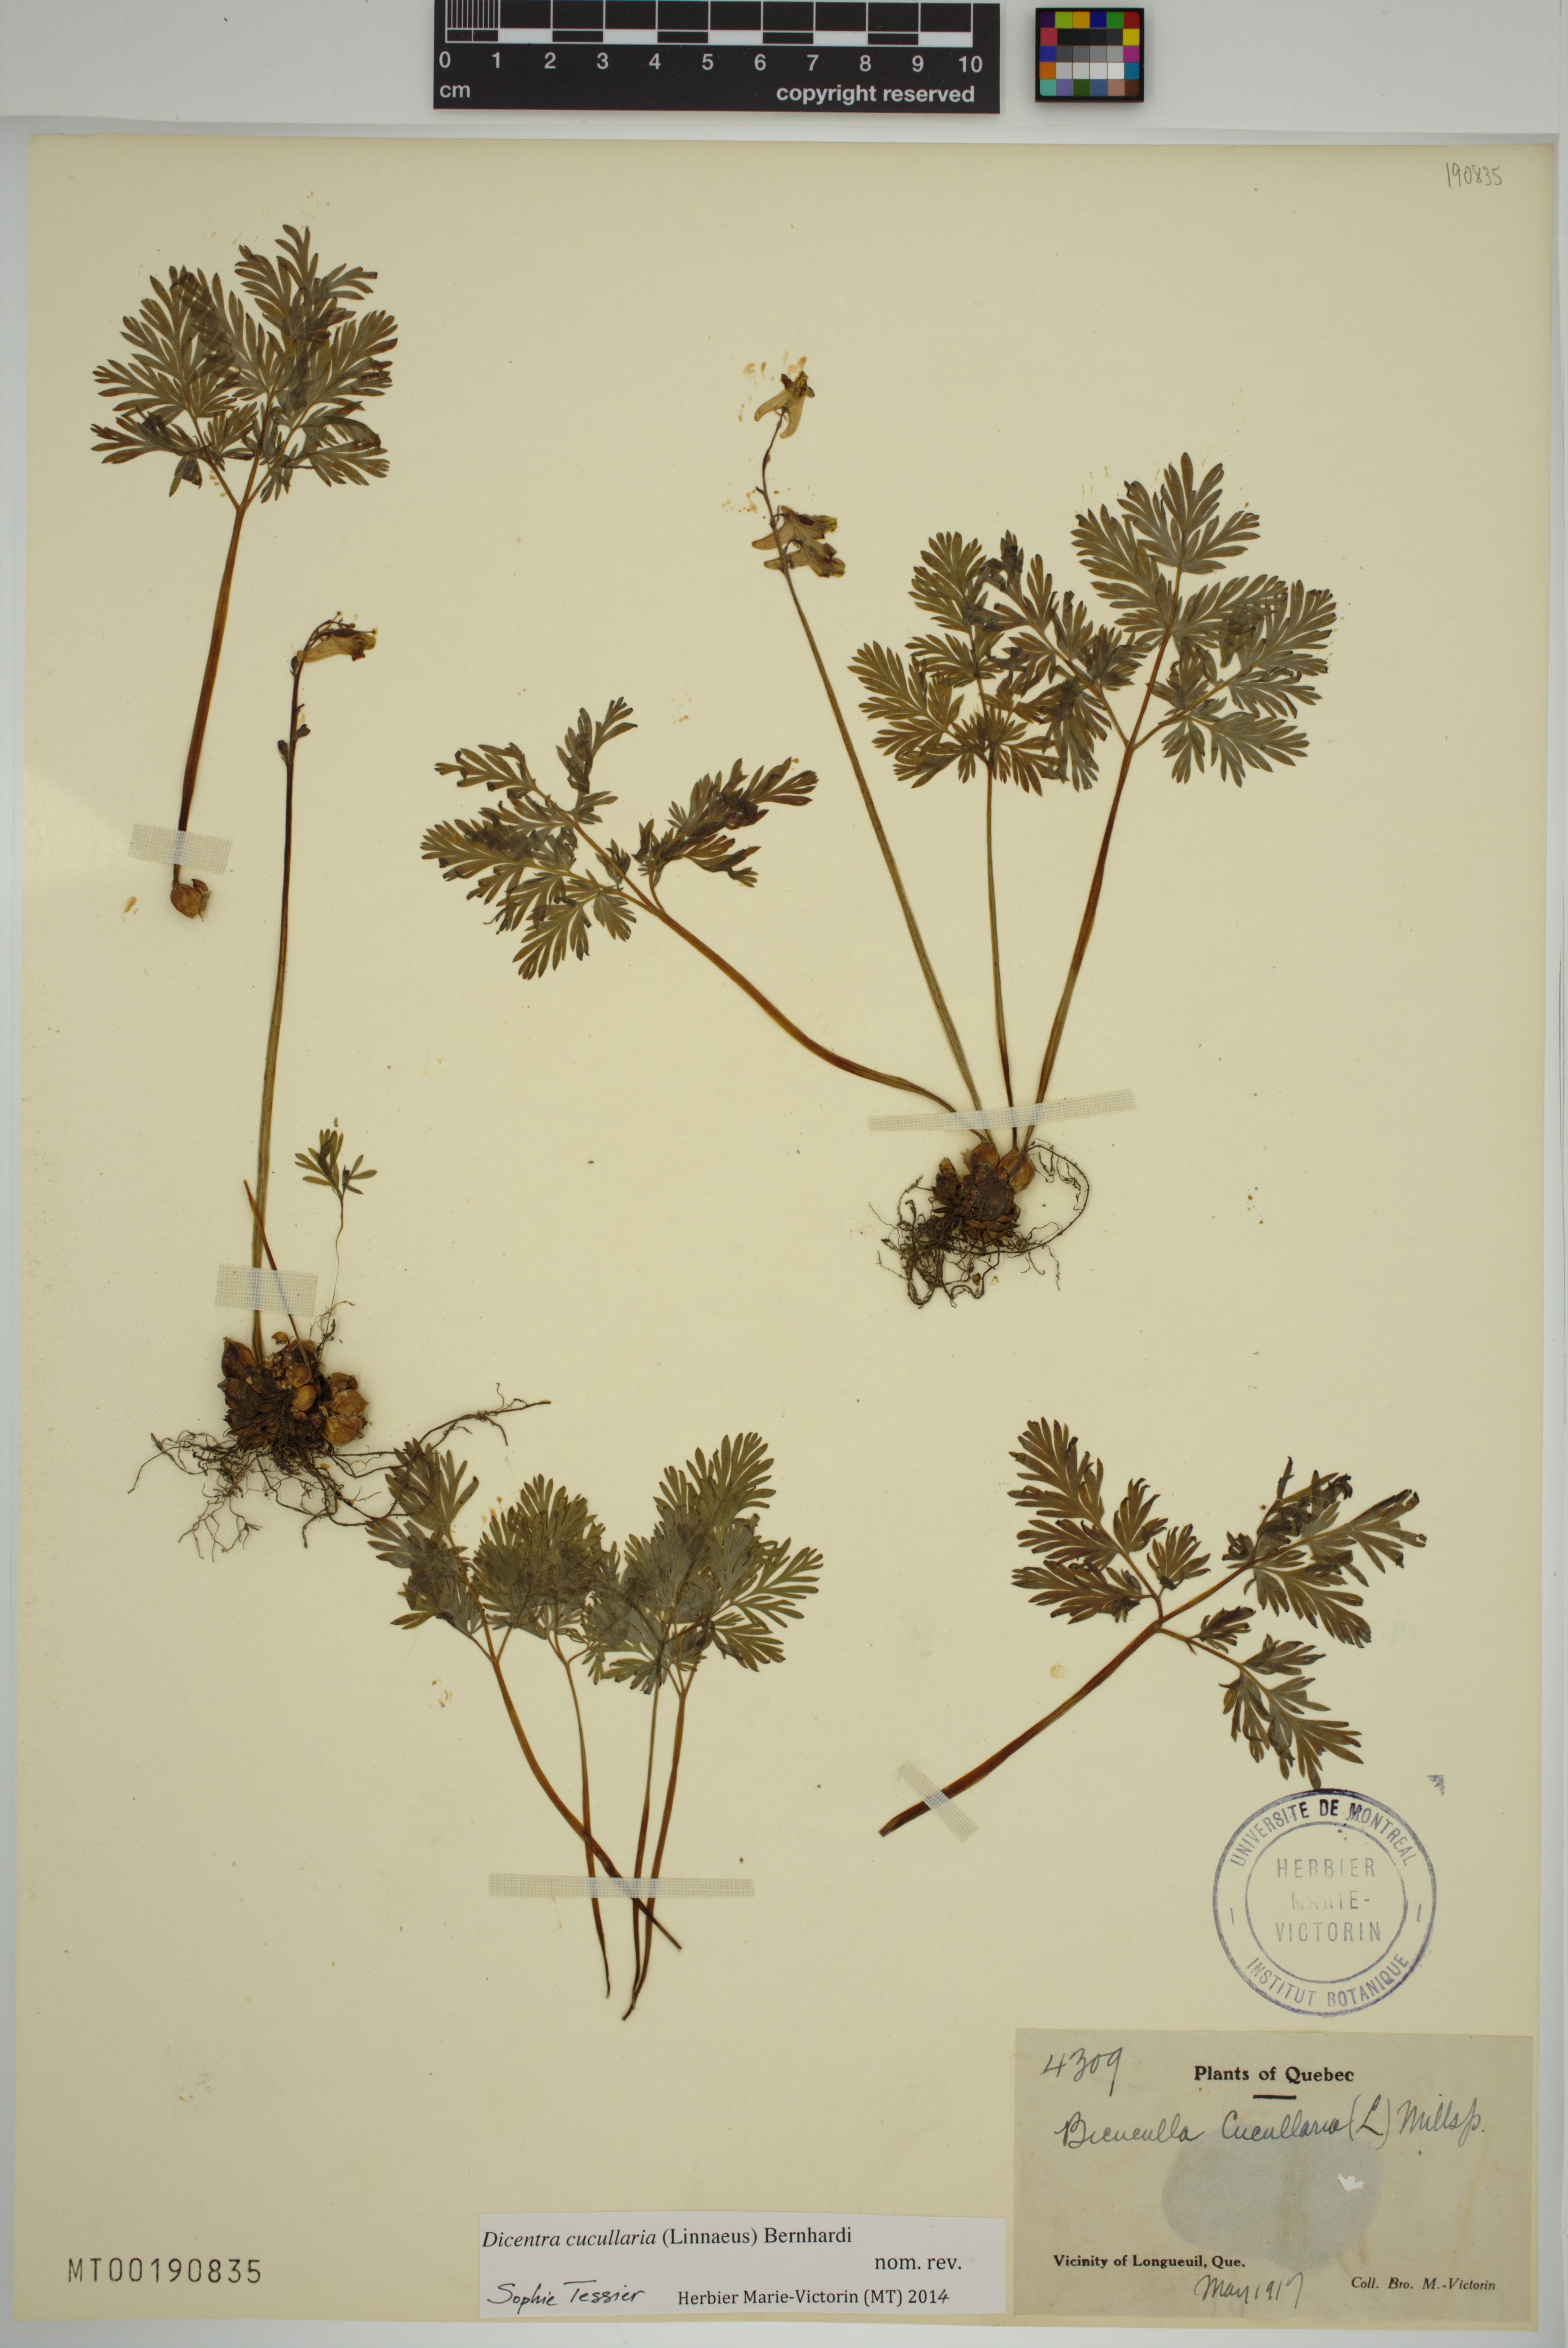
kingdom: Plantae
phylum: Tracheophyta
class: Magnoliopsida
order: Ranunculales
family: Papaveraceae
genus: Dicentra
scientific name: Dicentra cucullaria
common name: Dutchman's breeches
